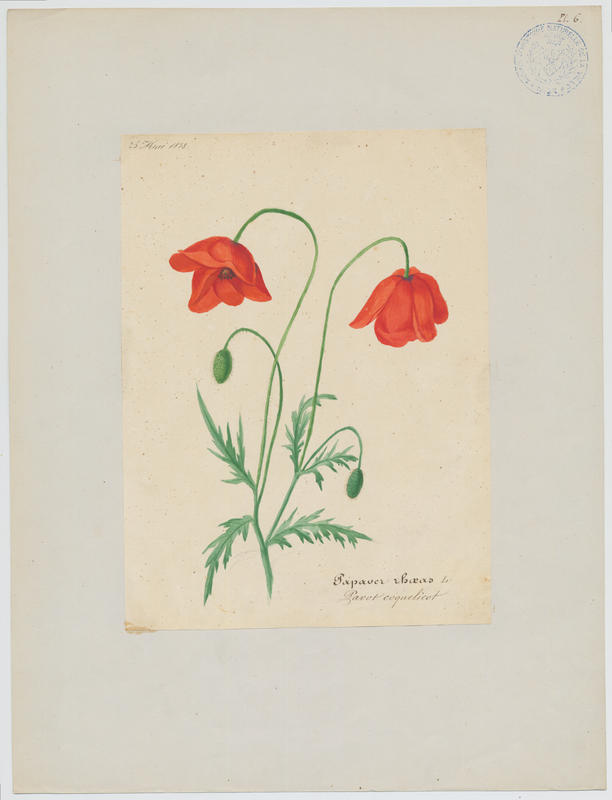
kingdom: Plantae
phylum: Tracheophyta
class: Magnoliopsida
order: Ranunculales
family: Papaveraceae
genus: Papaver
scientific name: Papaver rhoeas
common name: Corn poppy
